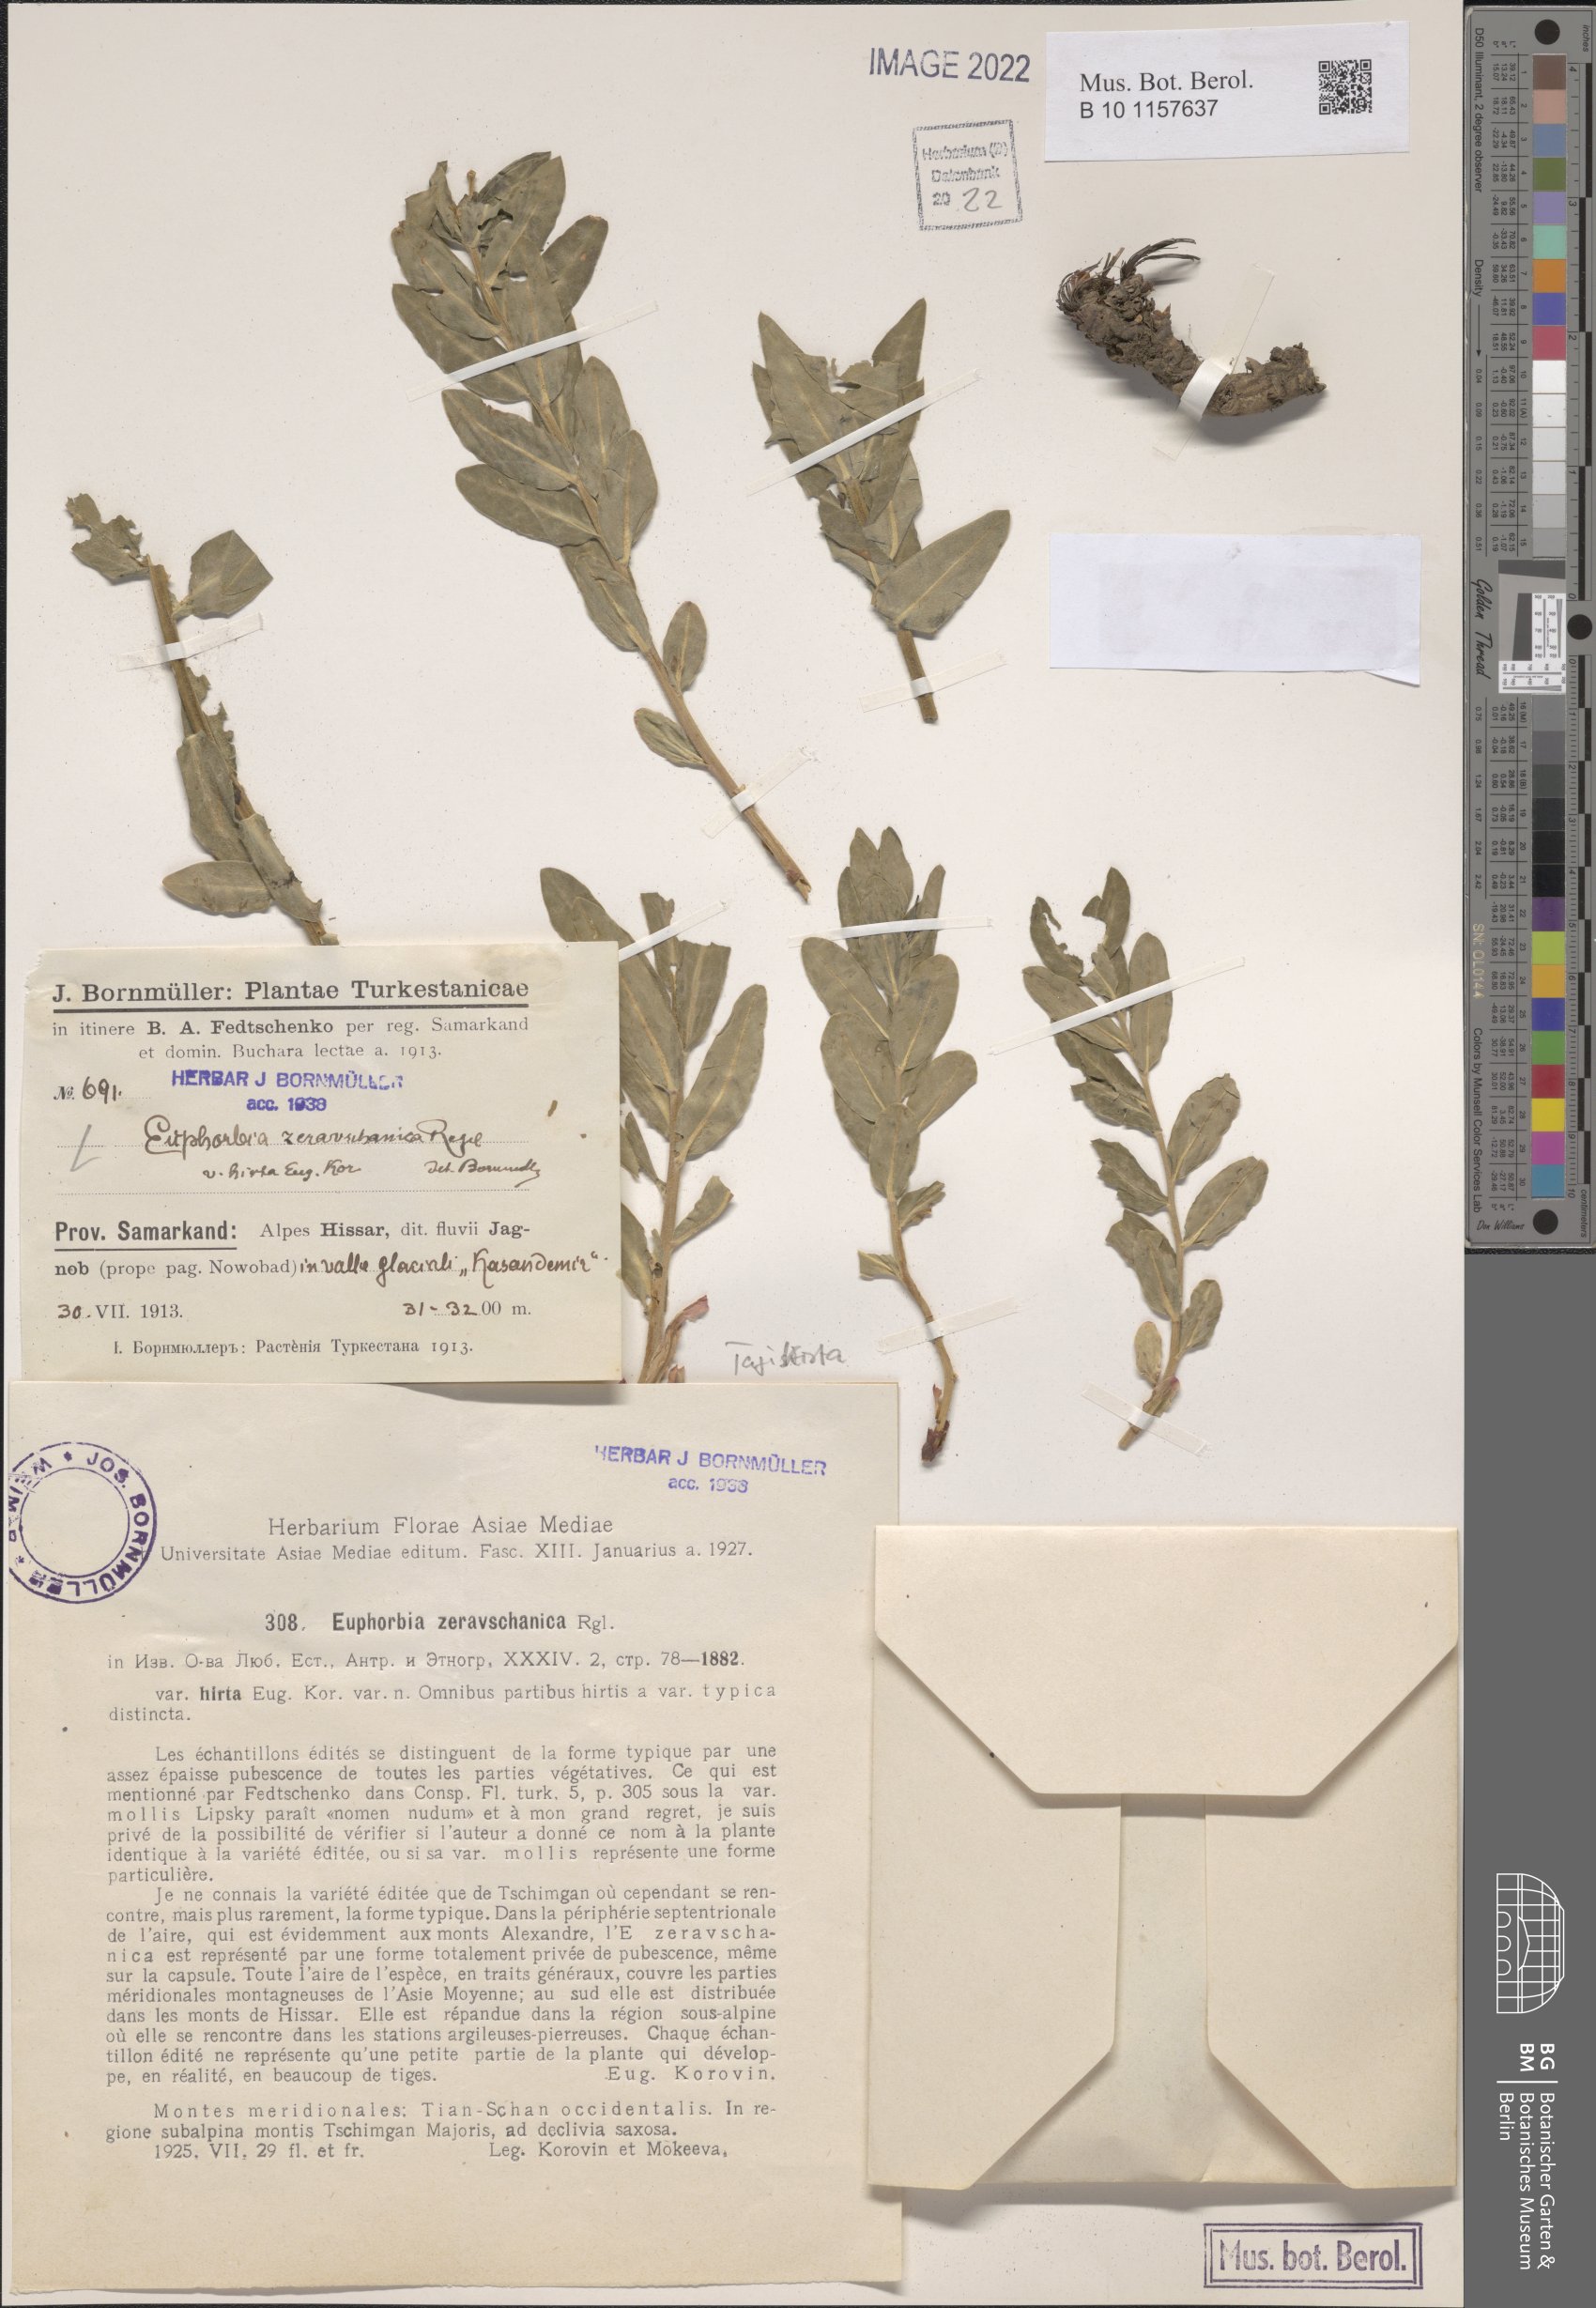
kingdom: Plantae
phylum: Tracheophyta
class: Magnoliopsida
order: Malpighiales
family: Euphorbiaceae
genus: Euphorbia
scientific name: Euphorbia sarawschanica
